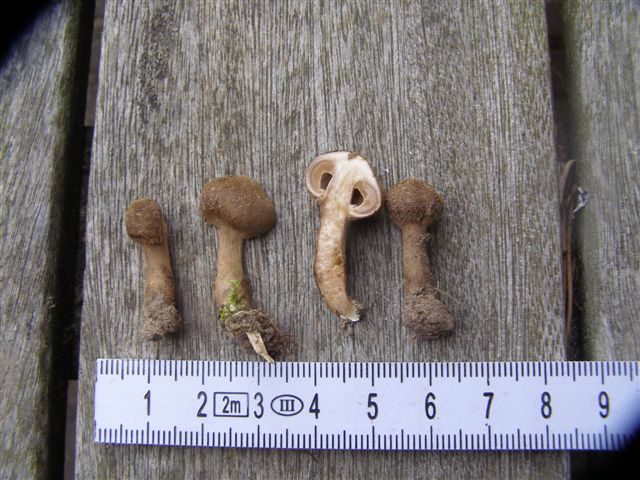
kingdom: Fungi
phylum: Basidiomycota
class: Agaricomycetes
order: Agaricales
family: Inocybaceae
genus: Inocybe
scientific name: Inocybe lacera
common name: laset trævlhat
